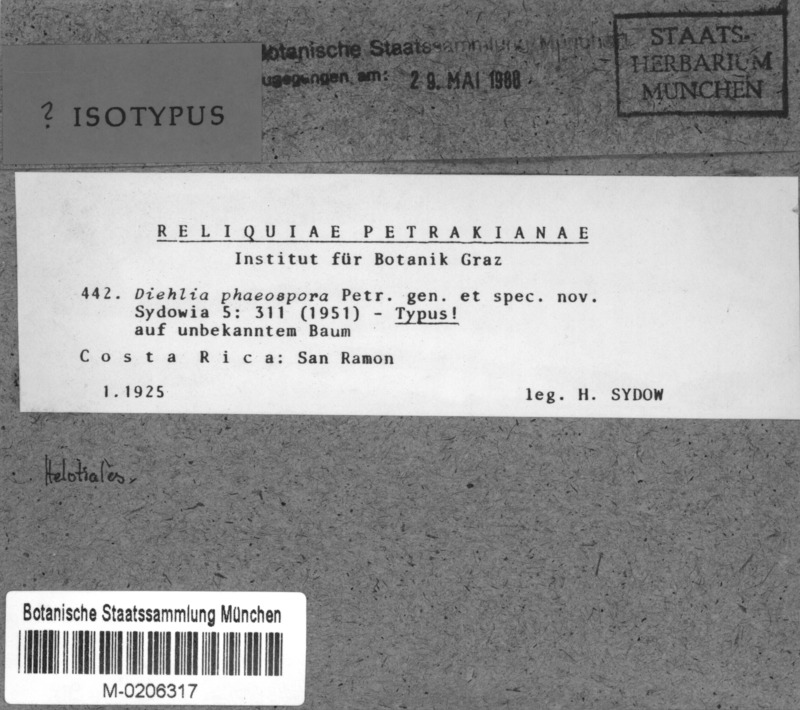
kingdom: Fungi
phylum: Ascomycota
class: Leotiomycetes
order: Helotiales
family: Gelatinodiscaceae
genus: Diehlia
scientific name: Diehlia phaeospora
